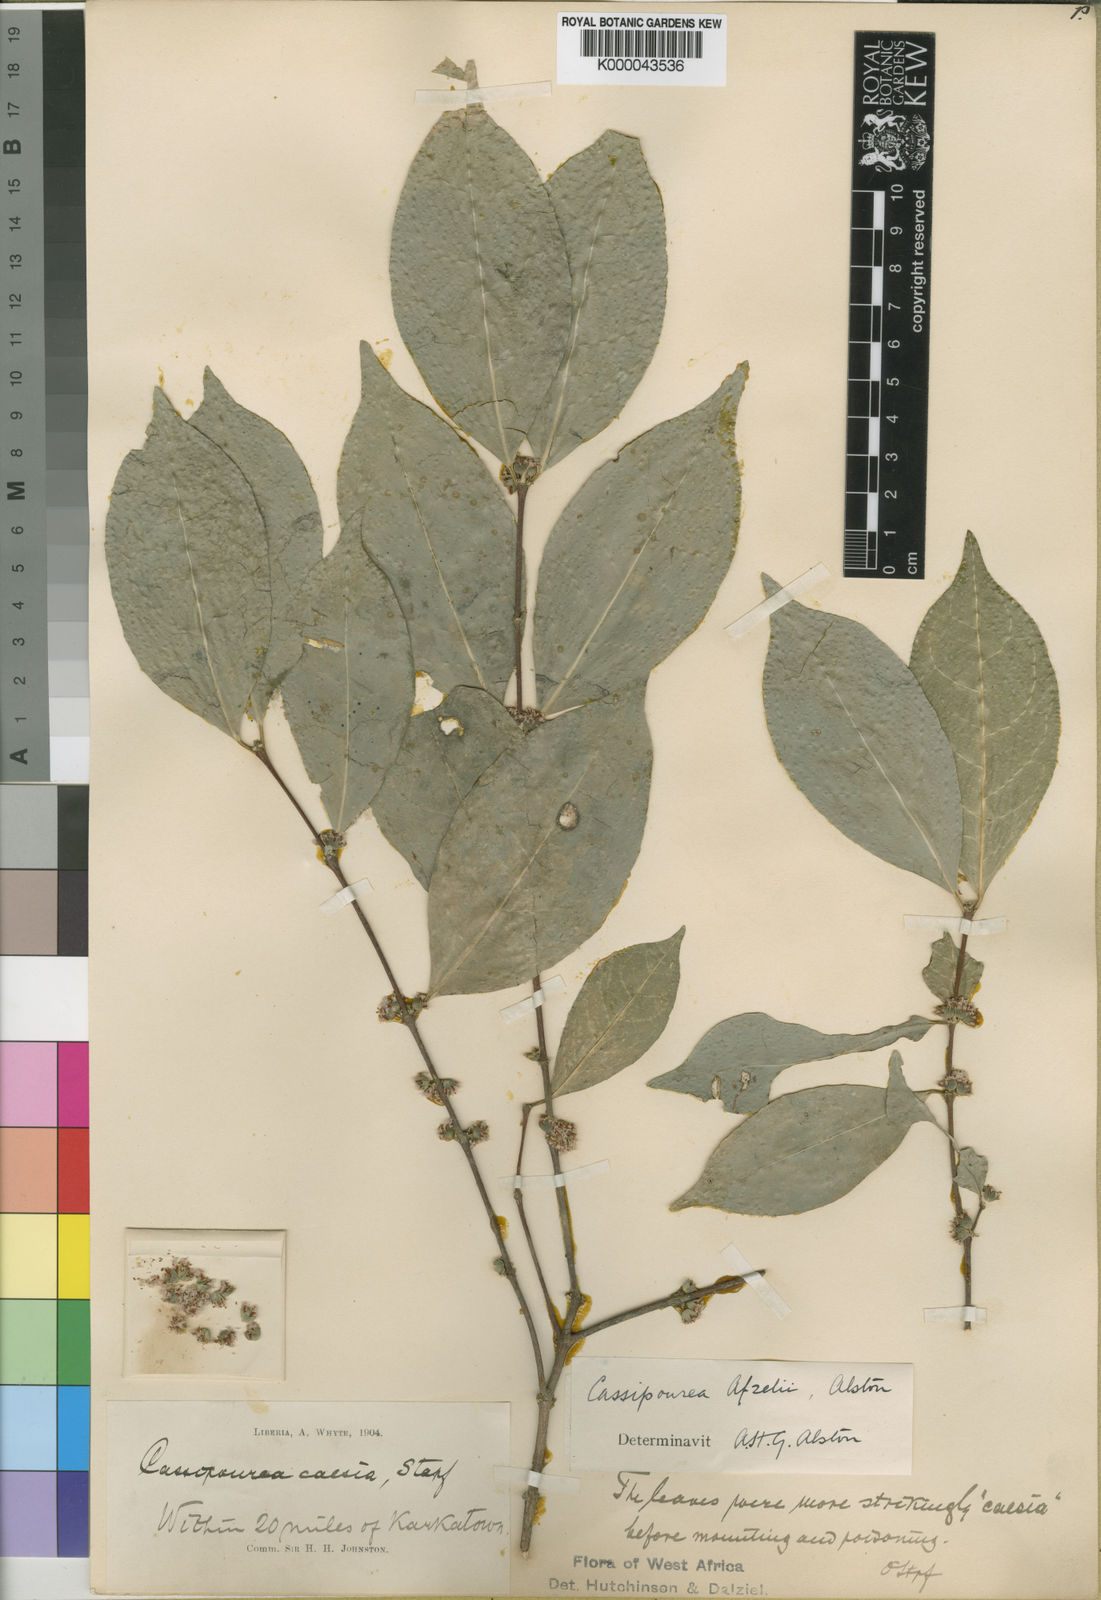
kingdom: Plantae
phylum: Tracheophyta
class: Magnoliopsida
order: Malpighiales
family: Rhizophoraceae
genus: Cassipourea
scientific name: Cassipourea afzelii
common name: Elephant tusk tree
